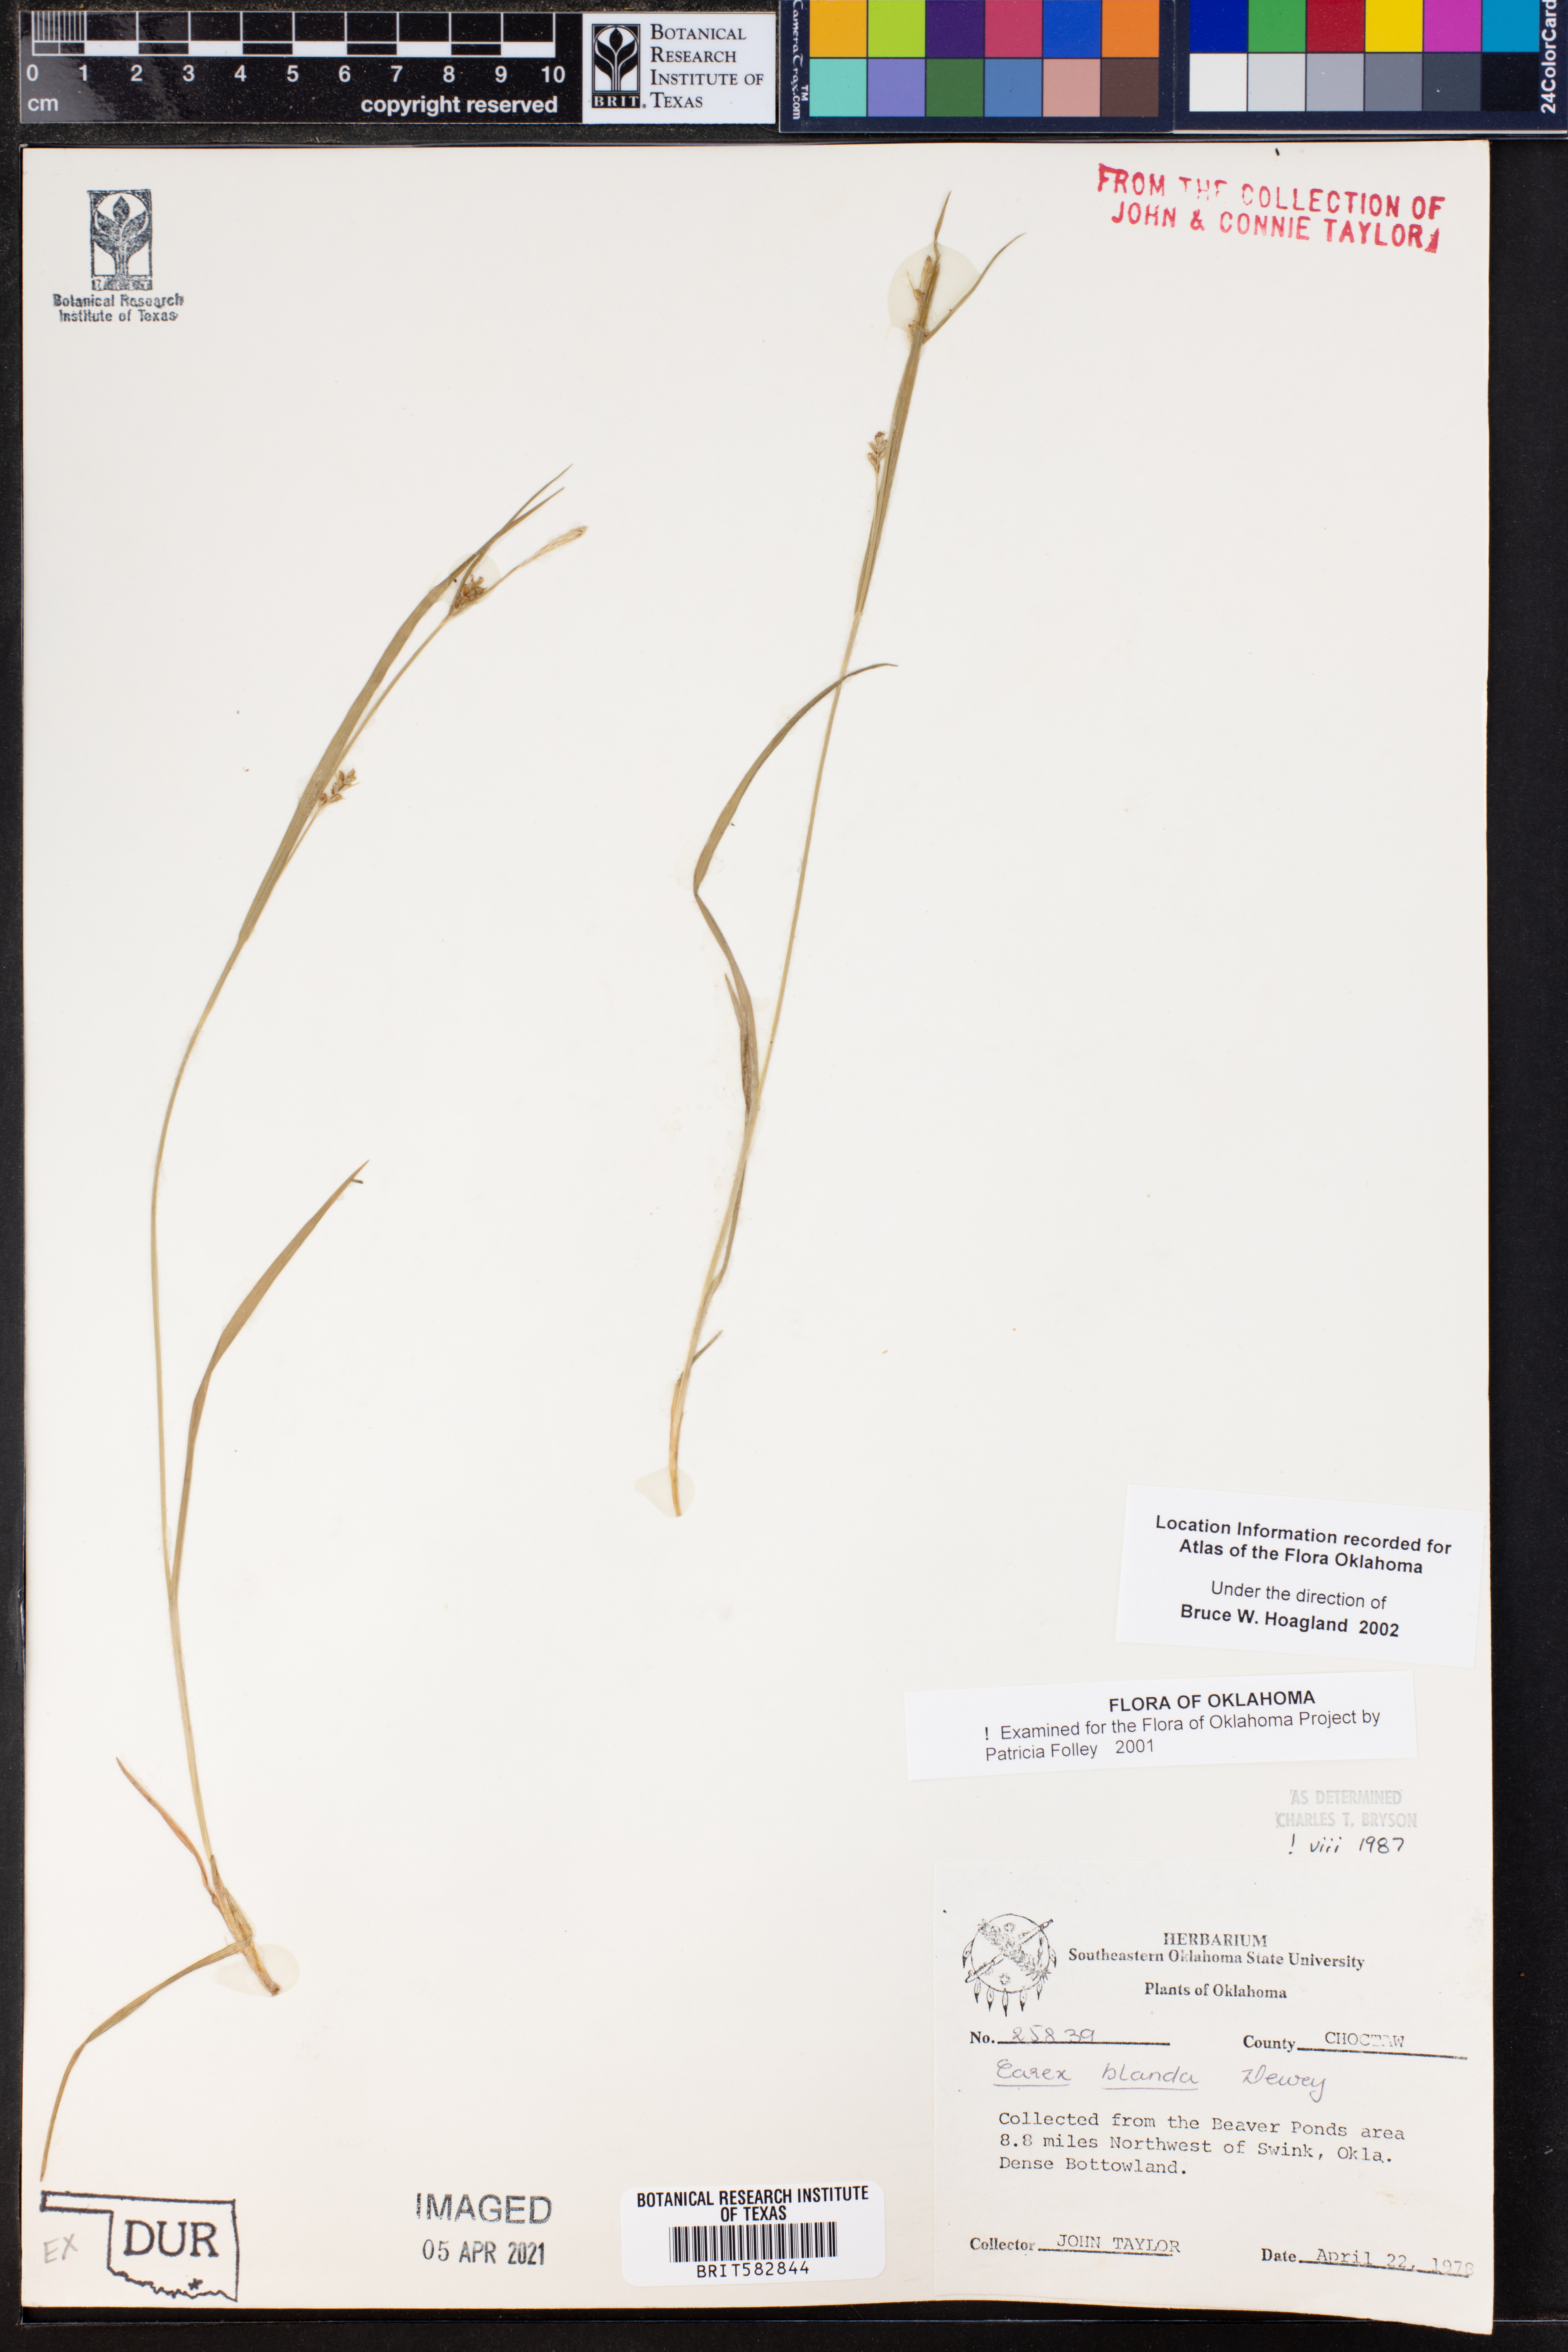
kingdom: Plantae
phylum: Tracheophyta
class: Liliopsida
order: Poales
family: Cyperaceae
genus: Carex
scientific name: Carex blanda
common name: Bland sedge
